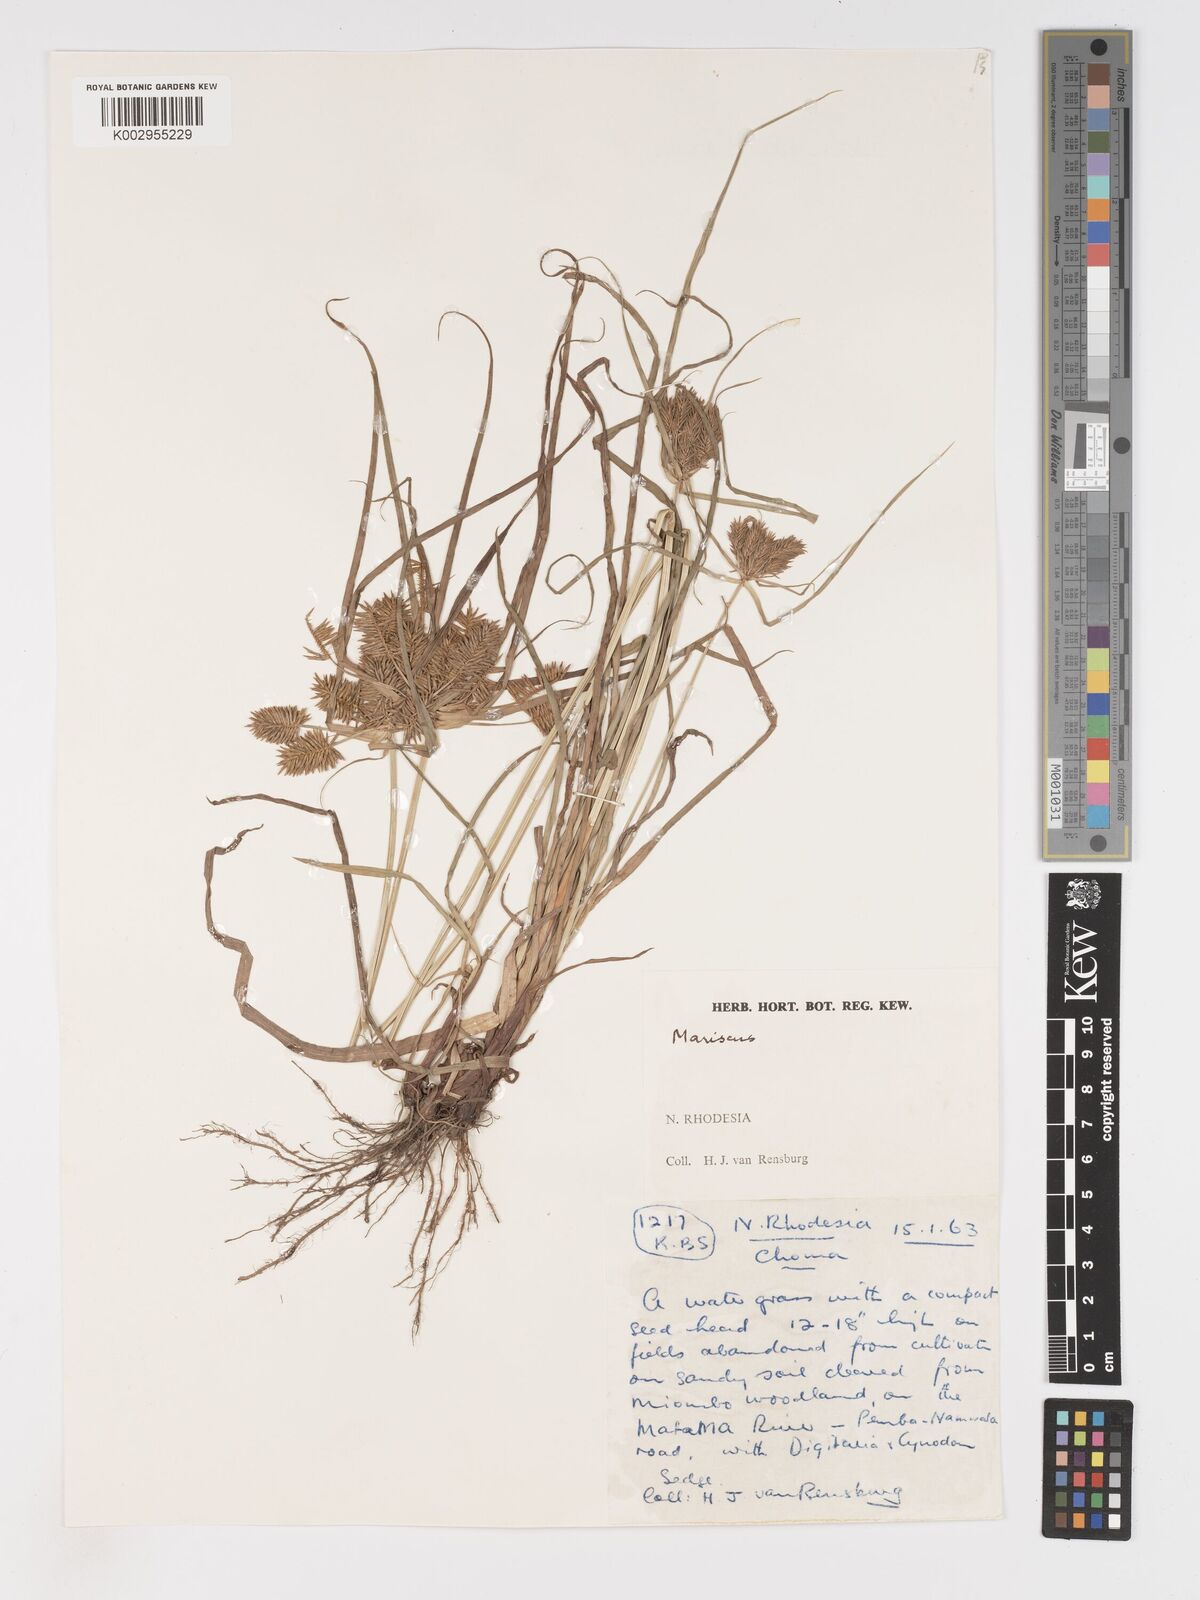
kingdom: Plantae
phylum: Tracheophyta
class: Liliopsida
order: Poales
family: Cyperaceae
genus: Cyperus
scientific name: Cyperus
